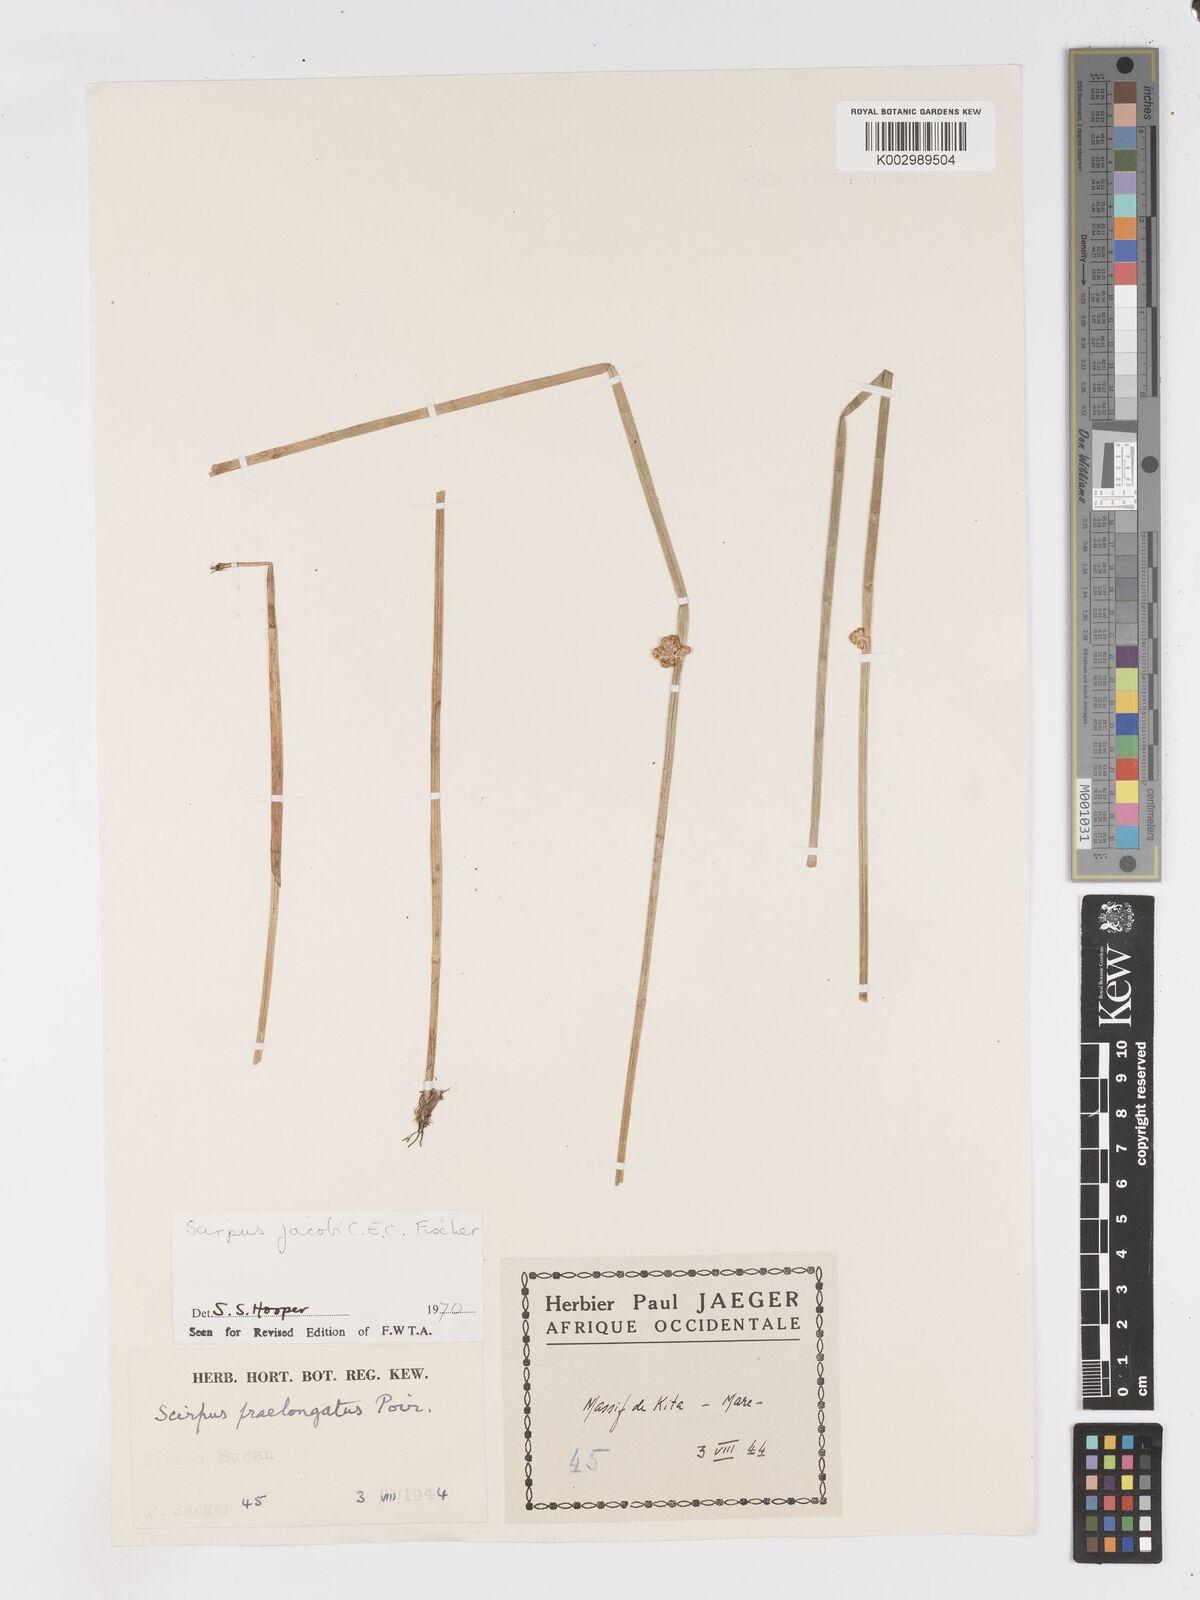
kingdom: Plantae
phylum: Tracheophyta
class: Liliopsida
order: Poales
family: Cyperaceae
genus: Schoenoplectiella
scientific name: Schoenoplectiella senegalensis
